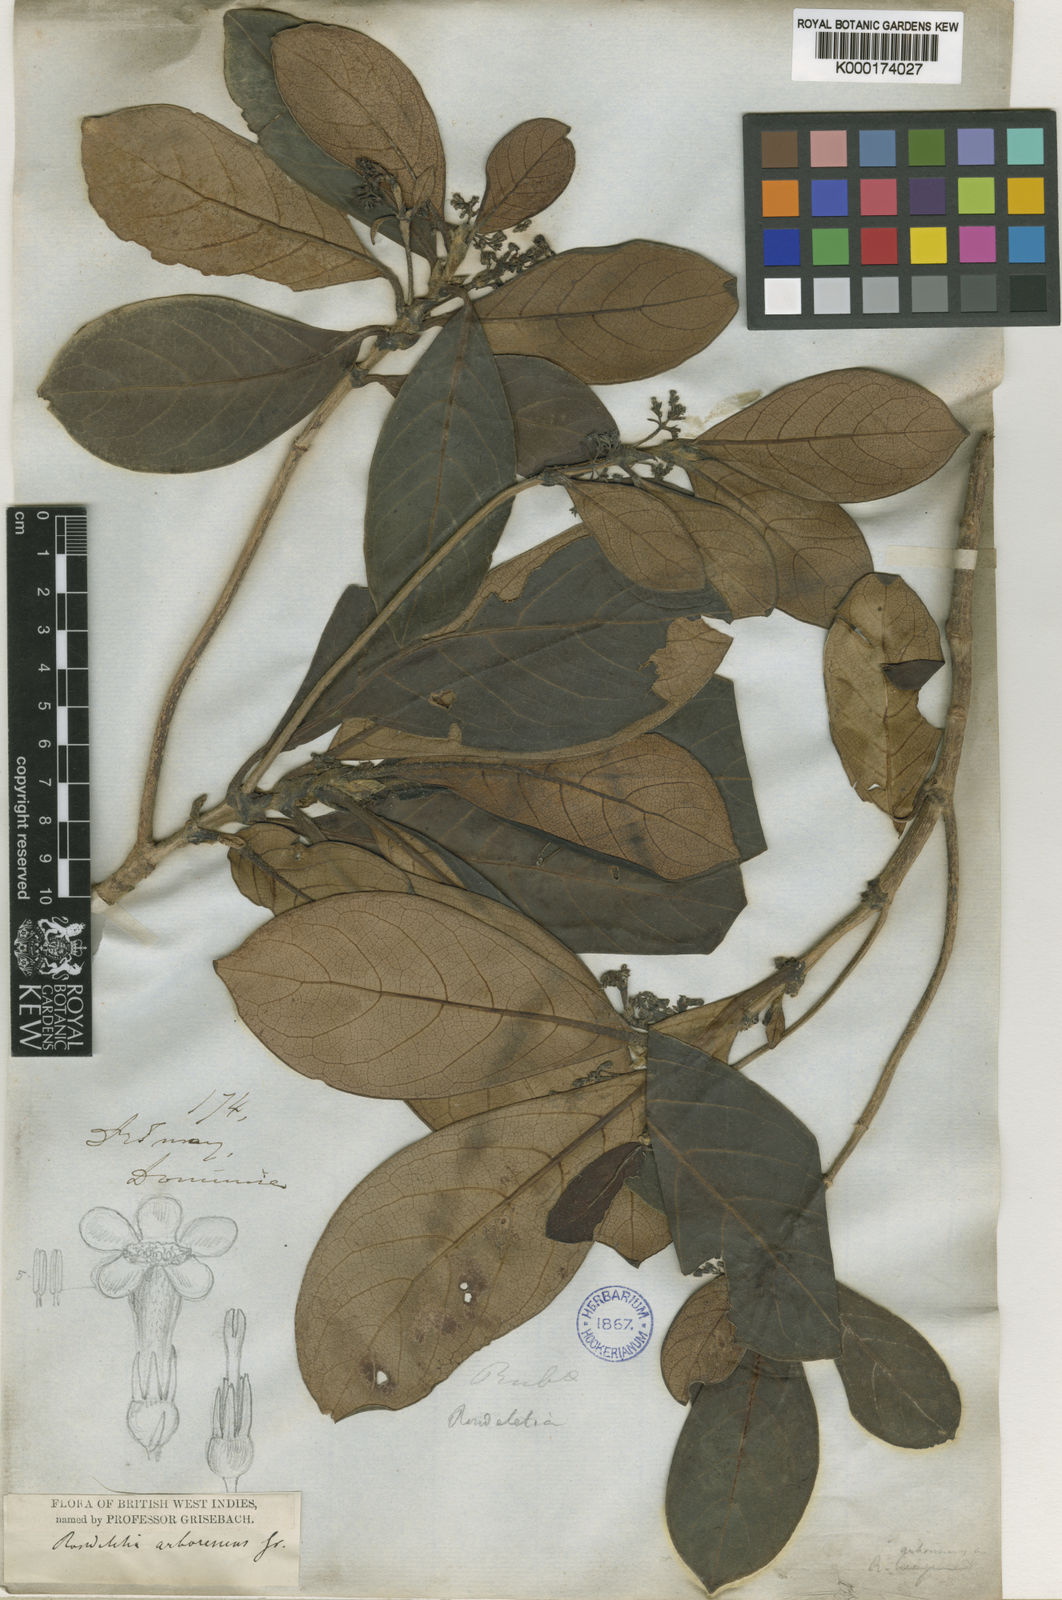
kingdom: Plantae
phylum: Tracheophyta
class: Magnoliopsida
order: Gentianales
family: Rubiaceae
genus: Rondeletia
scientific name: Rondeletia parviflora
